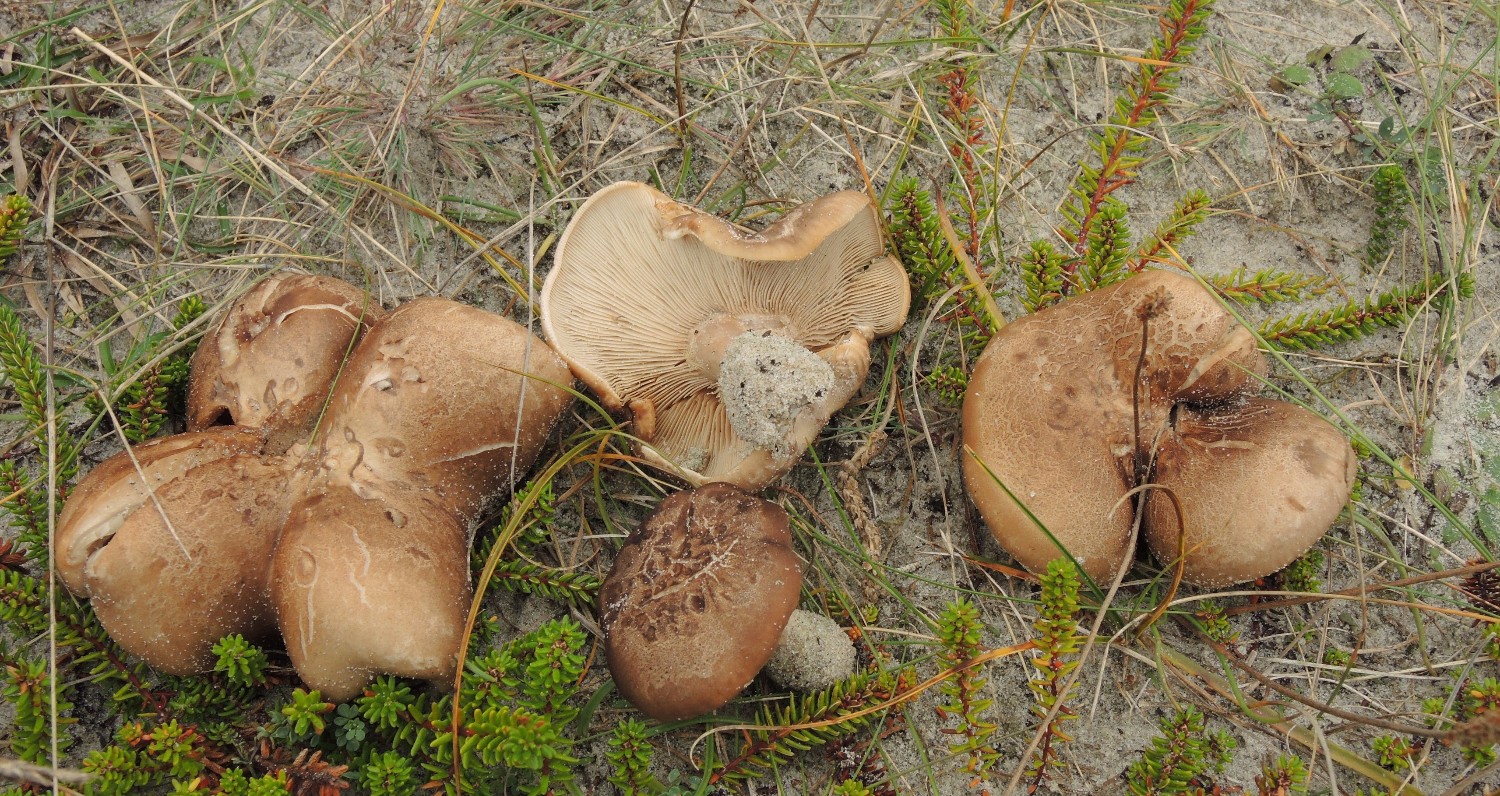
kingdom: Fungi
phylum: Basidiomycota
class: Agaricomycetes
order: Agaricales
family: Tricholomataceae
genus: Lepista
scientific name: Lepista panaeolus
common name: marmoreret hekseringshat
